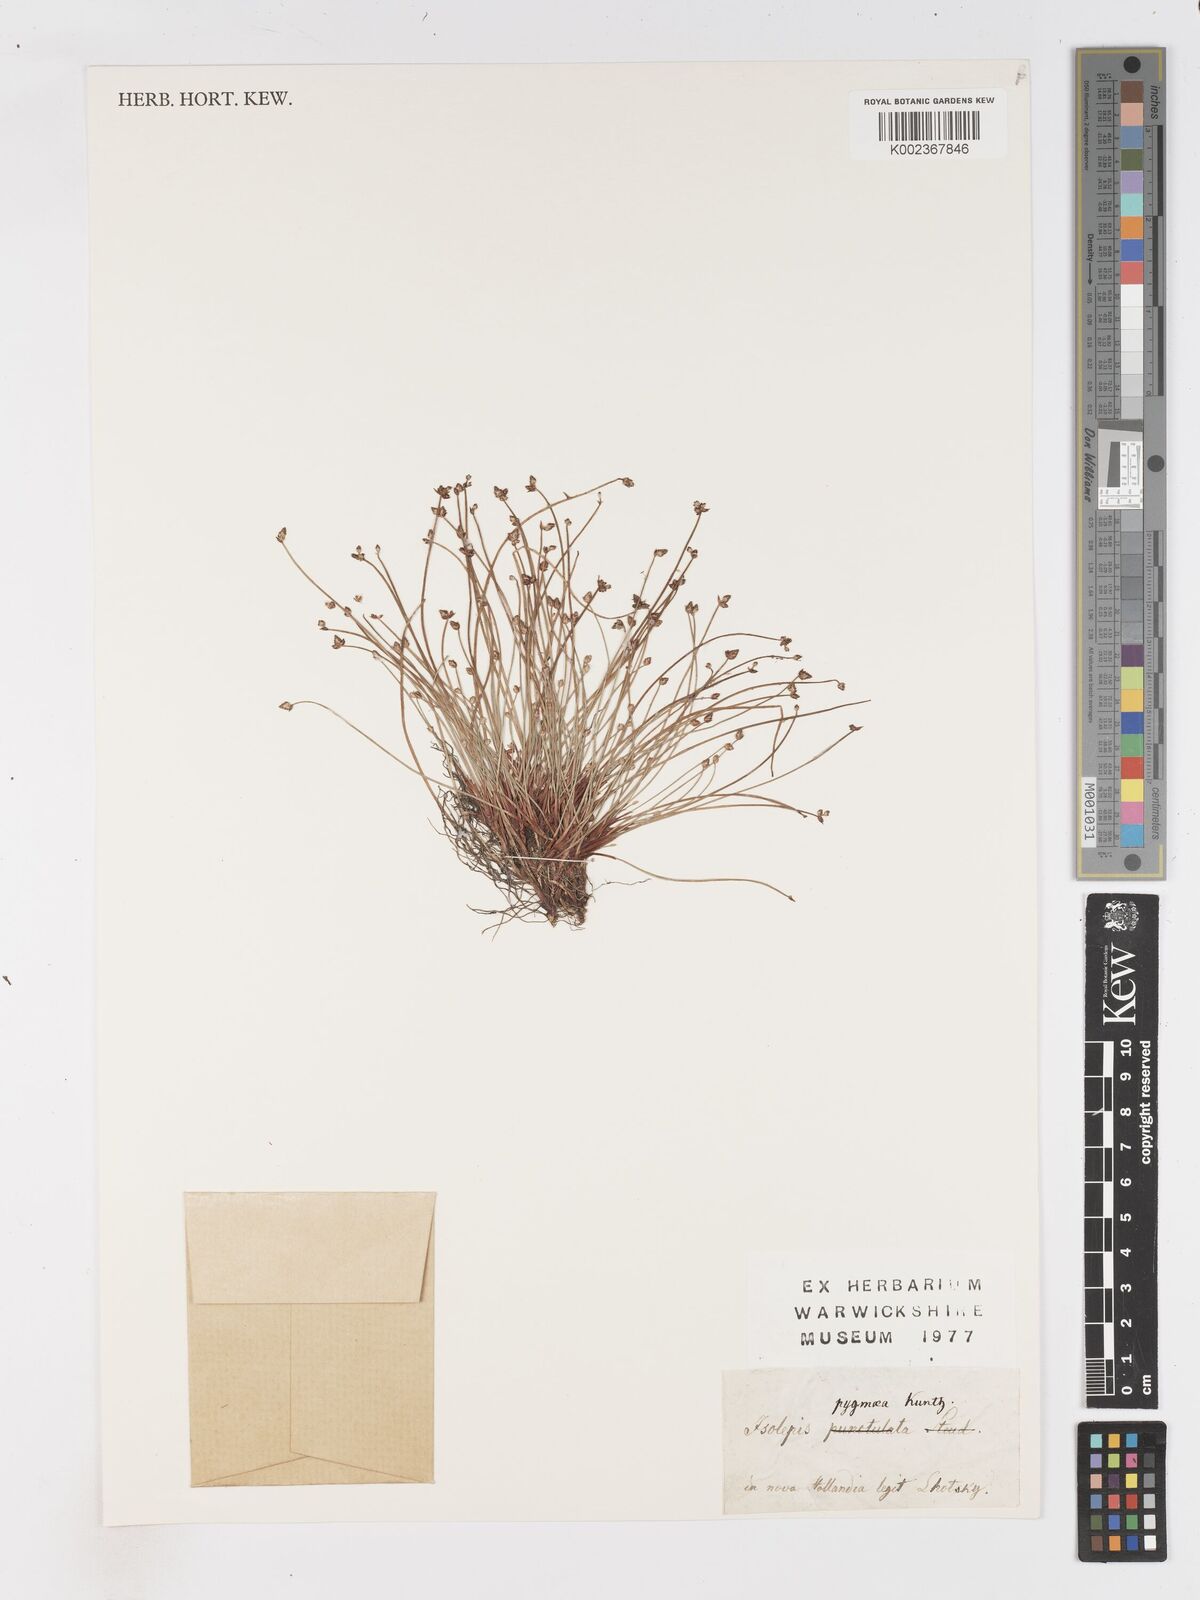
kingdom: Plantae
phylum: Tracheophyta
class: Liliopsida
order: Poales
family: Cyperaceae
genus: Isolepis
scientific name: Isolepis cernua
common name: Slender club-rush
